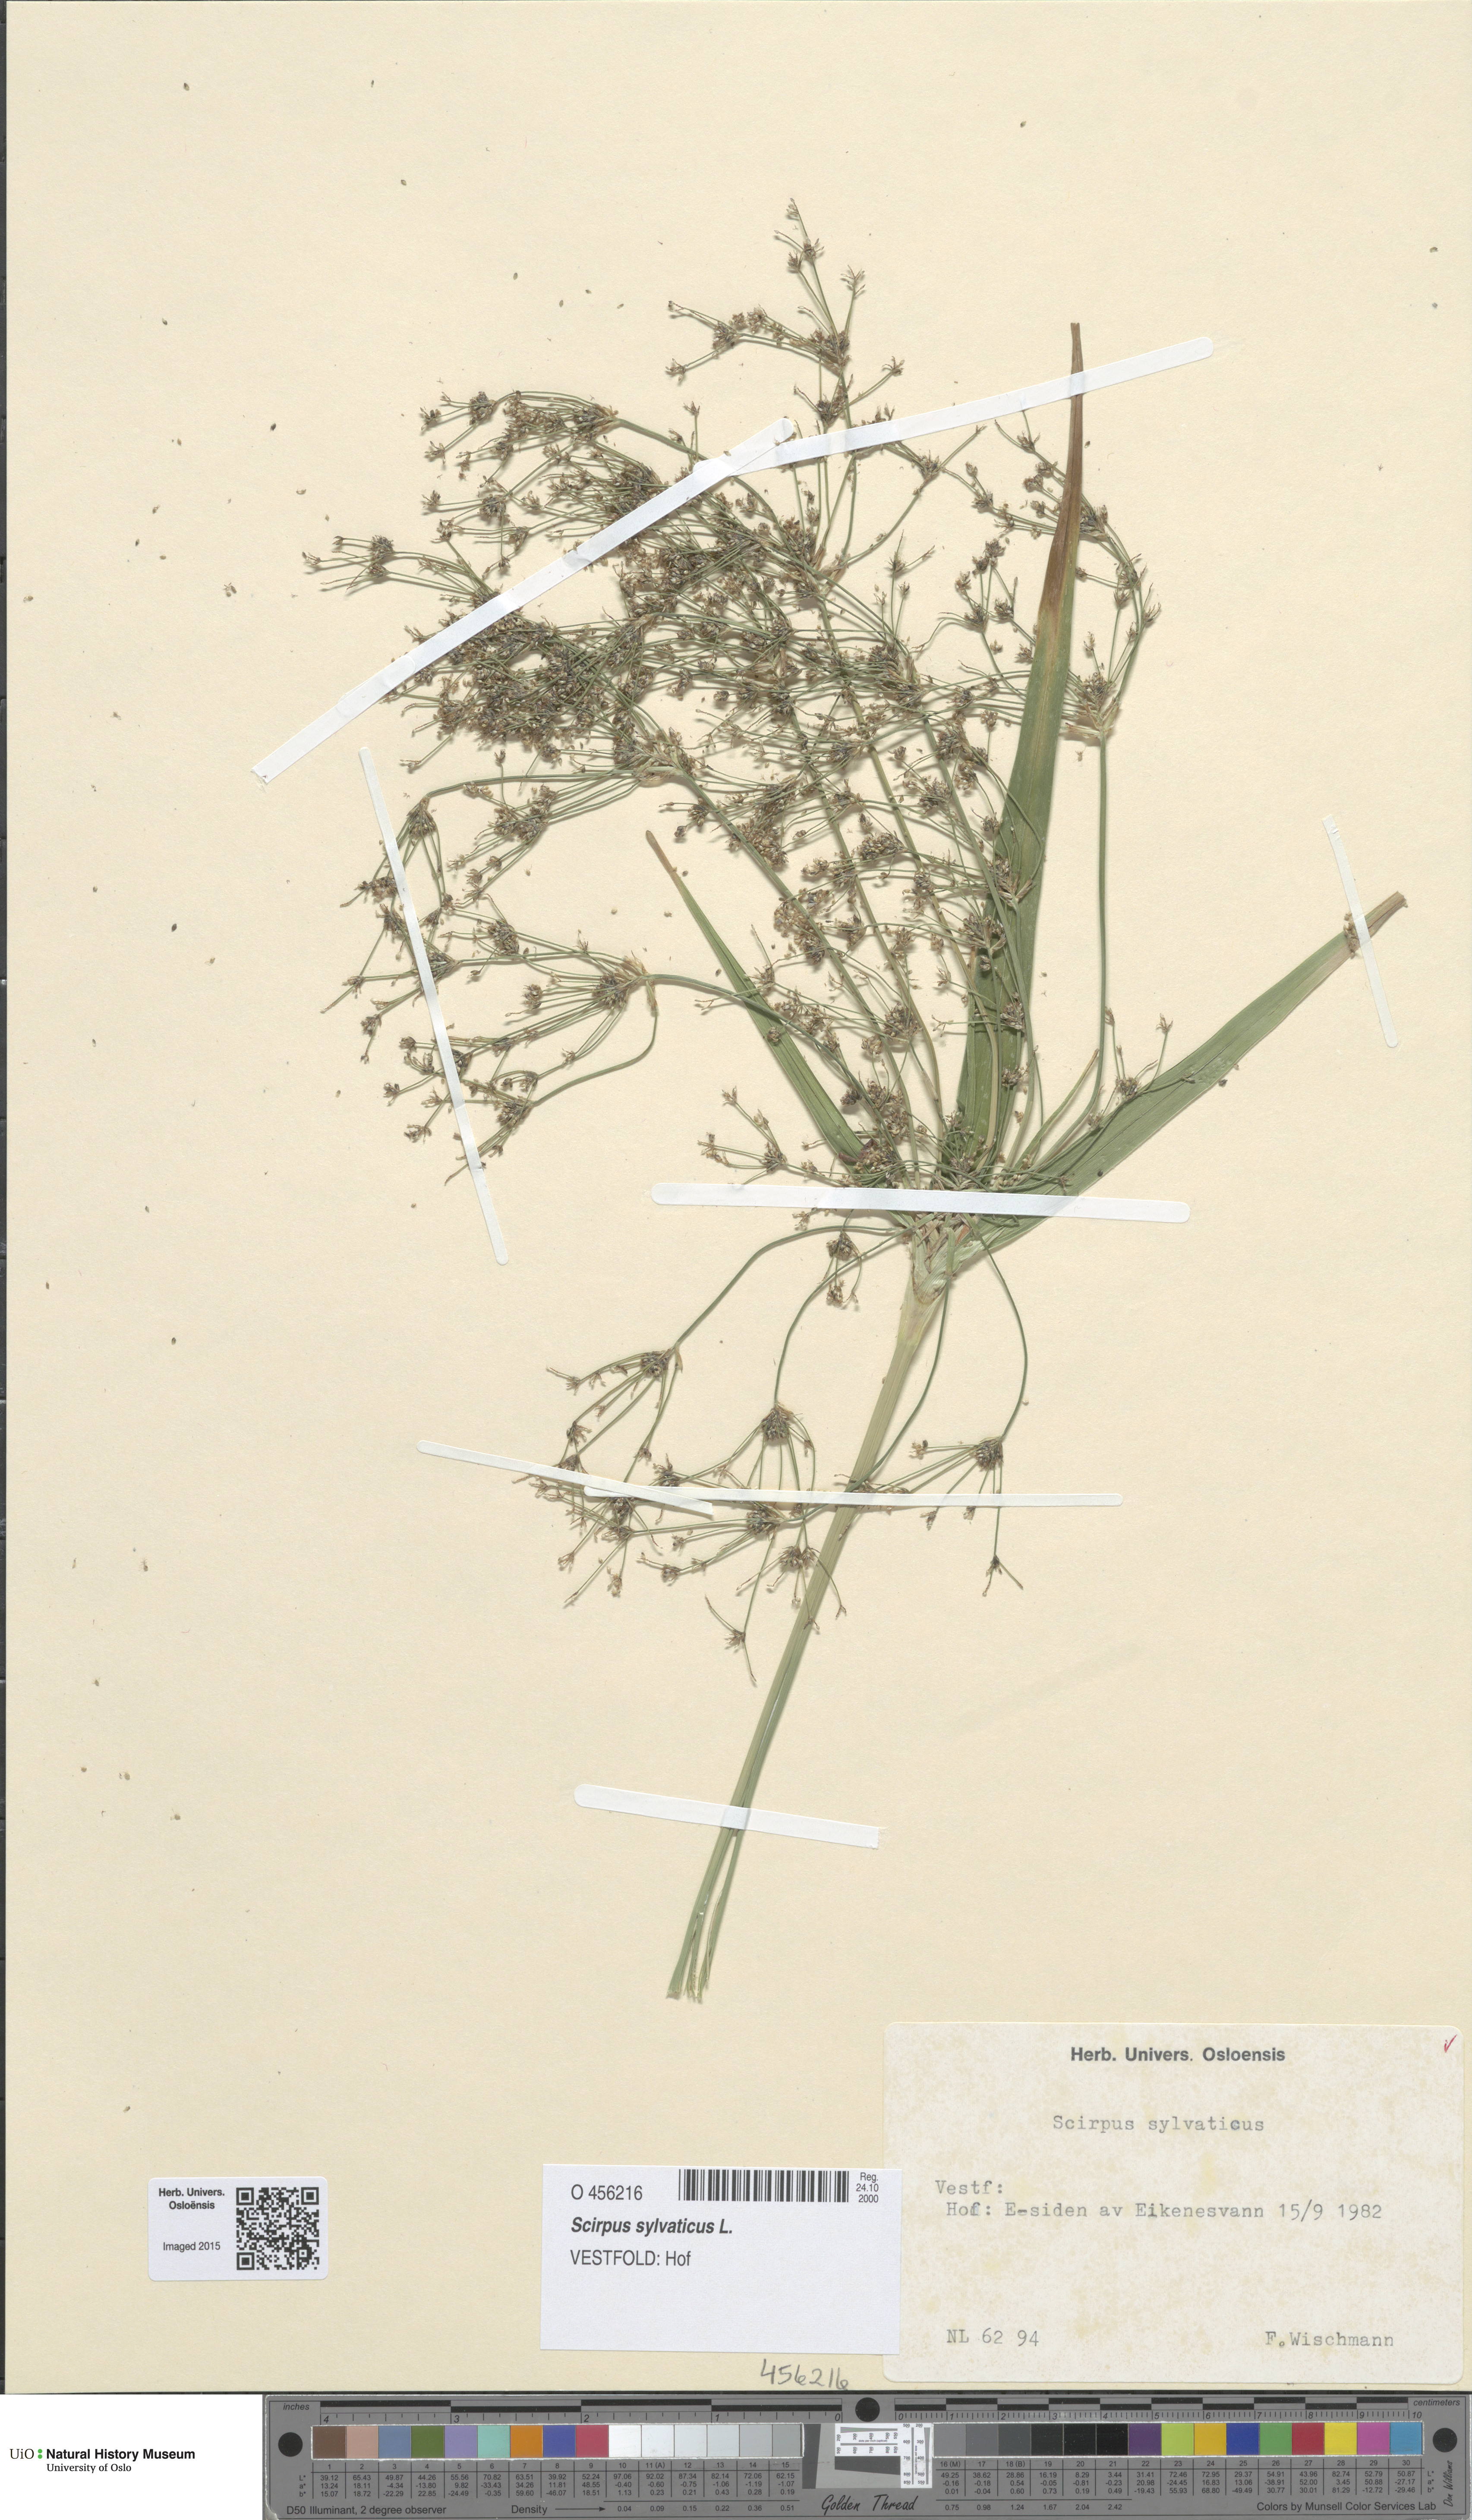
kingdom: Plantae
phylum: Tracheophyta
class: Liliopsida
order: Poales
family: Cyperaceae
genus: Scirpus
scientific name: Scirpus sylvaticus
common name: Wood club-rush
